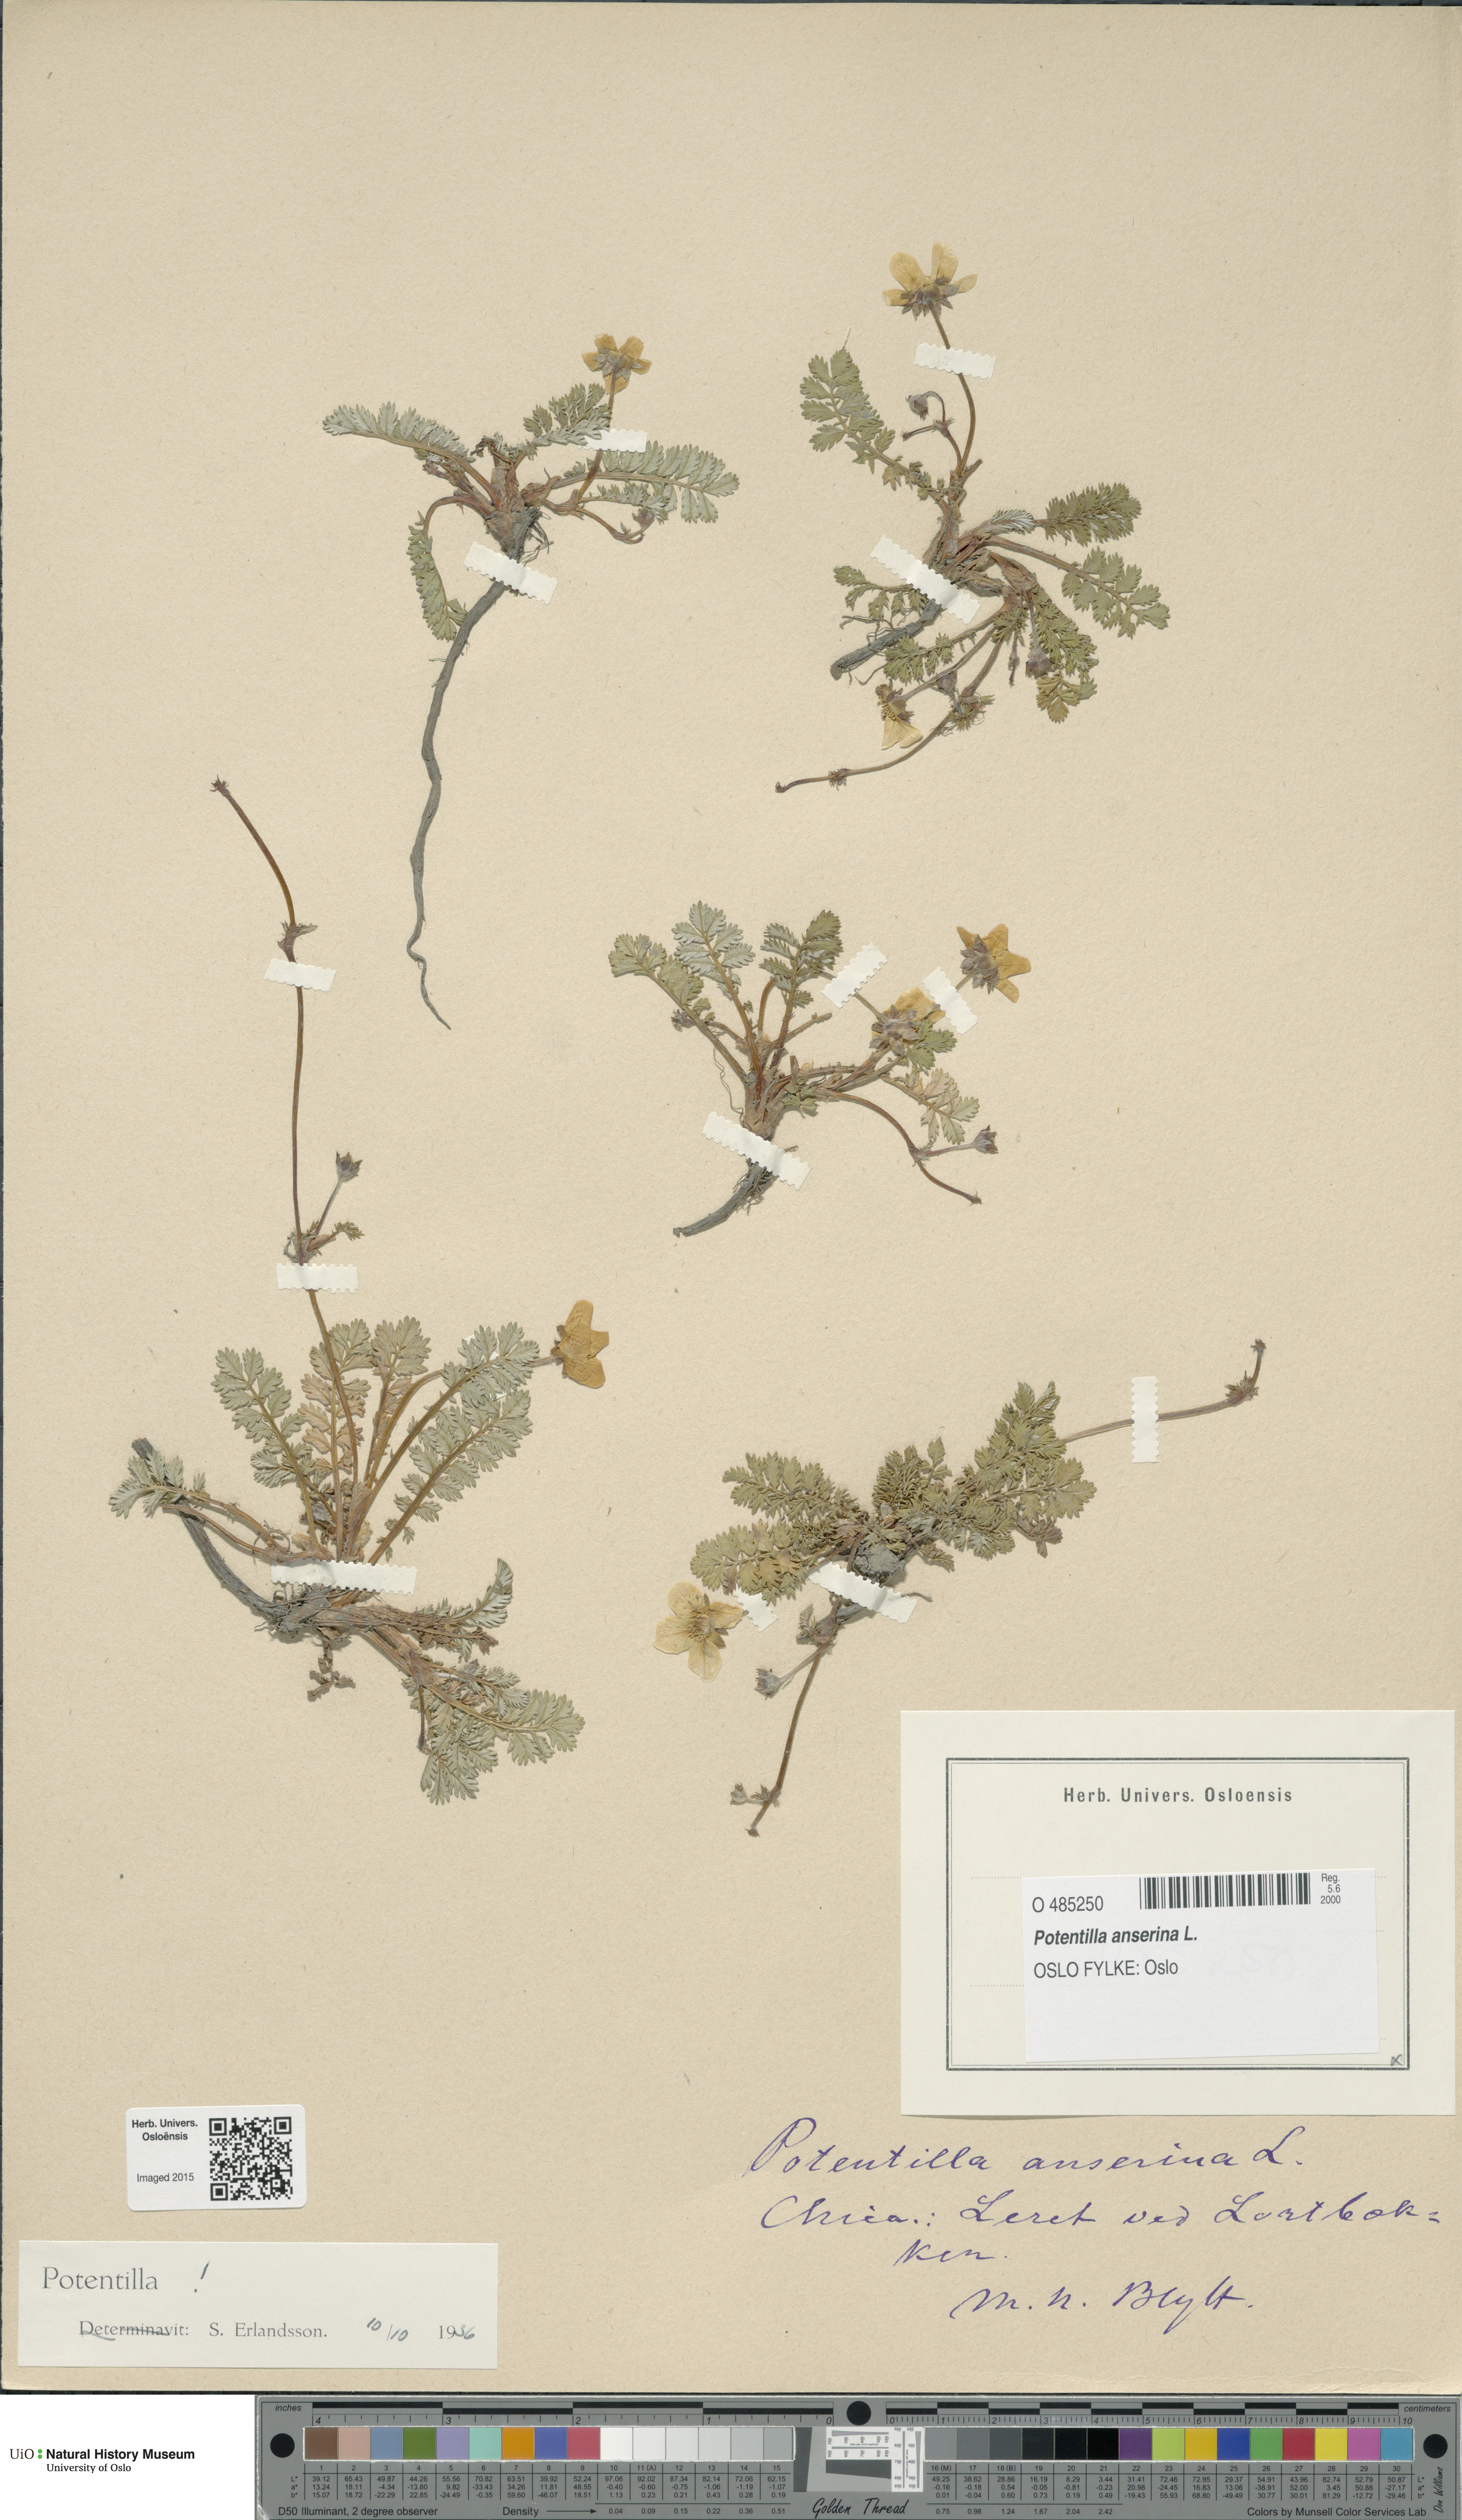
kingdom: Plantae
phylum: Tracheophyta
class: Magnoliopsida
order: Rosales
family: Rosaceae
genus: Argentina
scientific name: Argentina anserina
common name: Common silverweed
